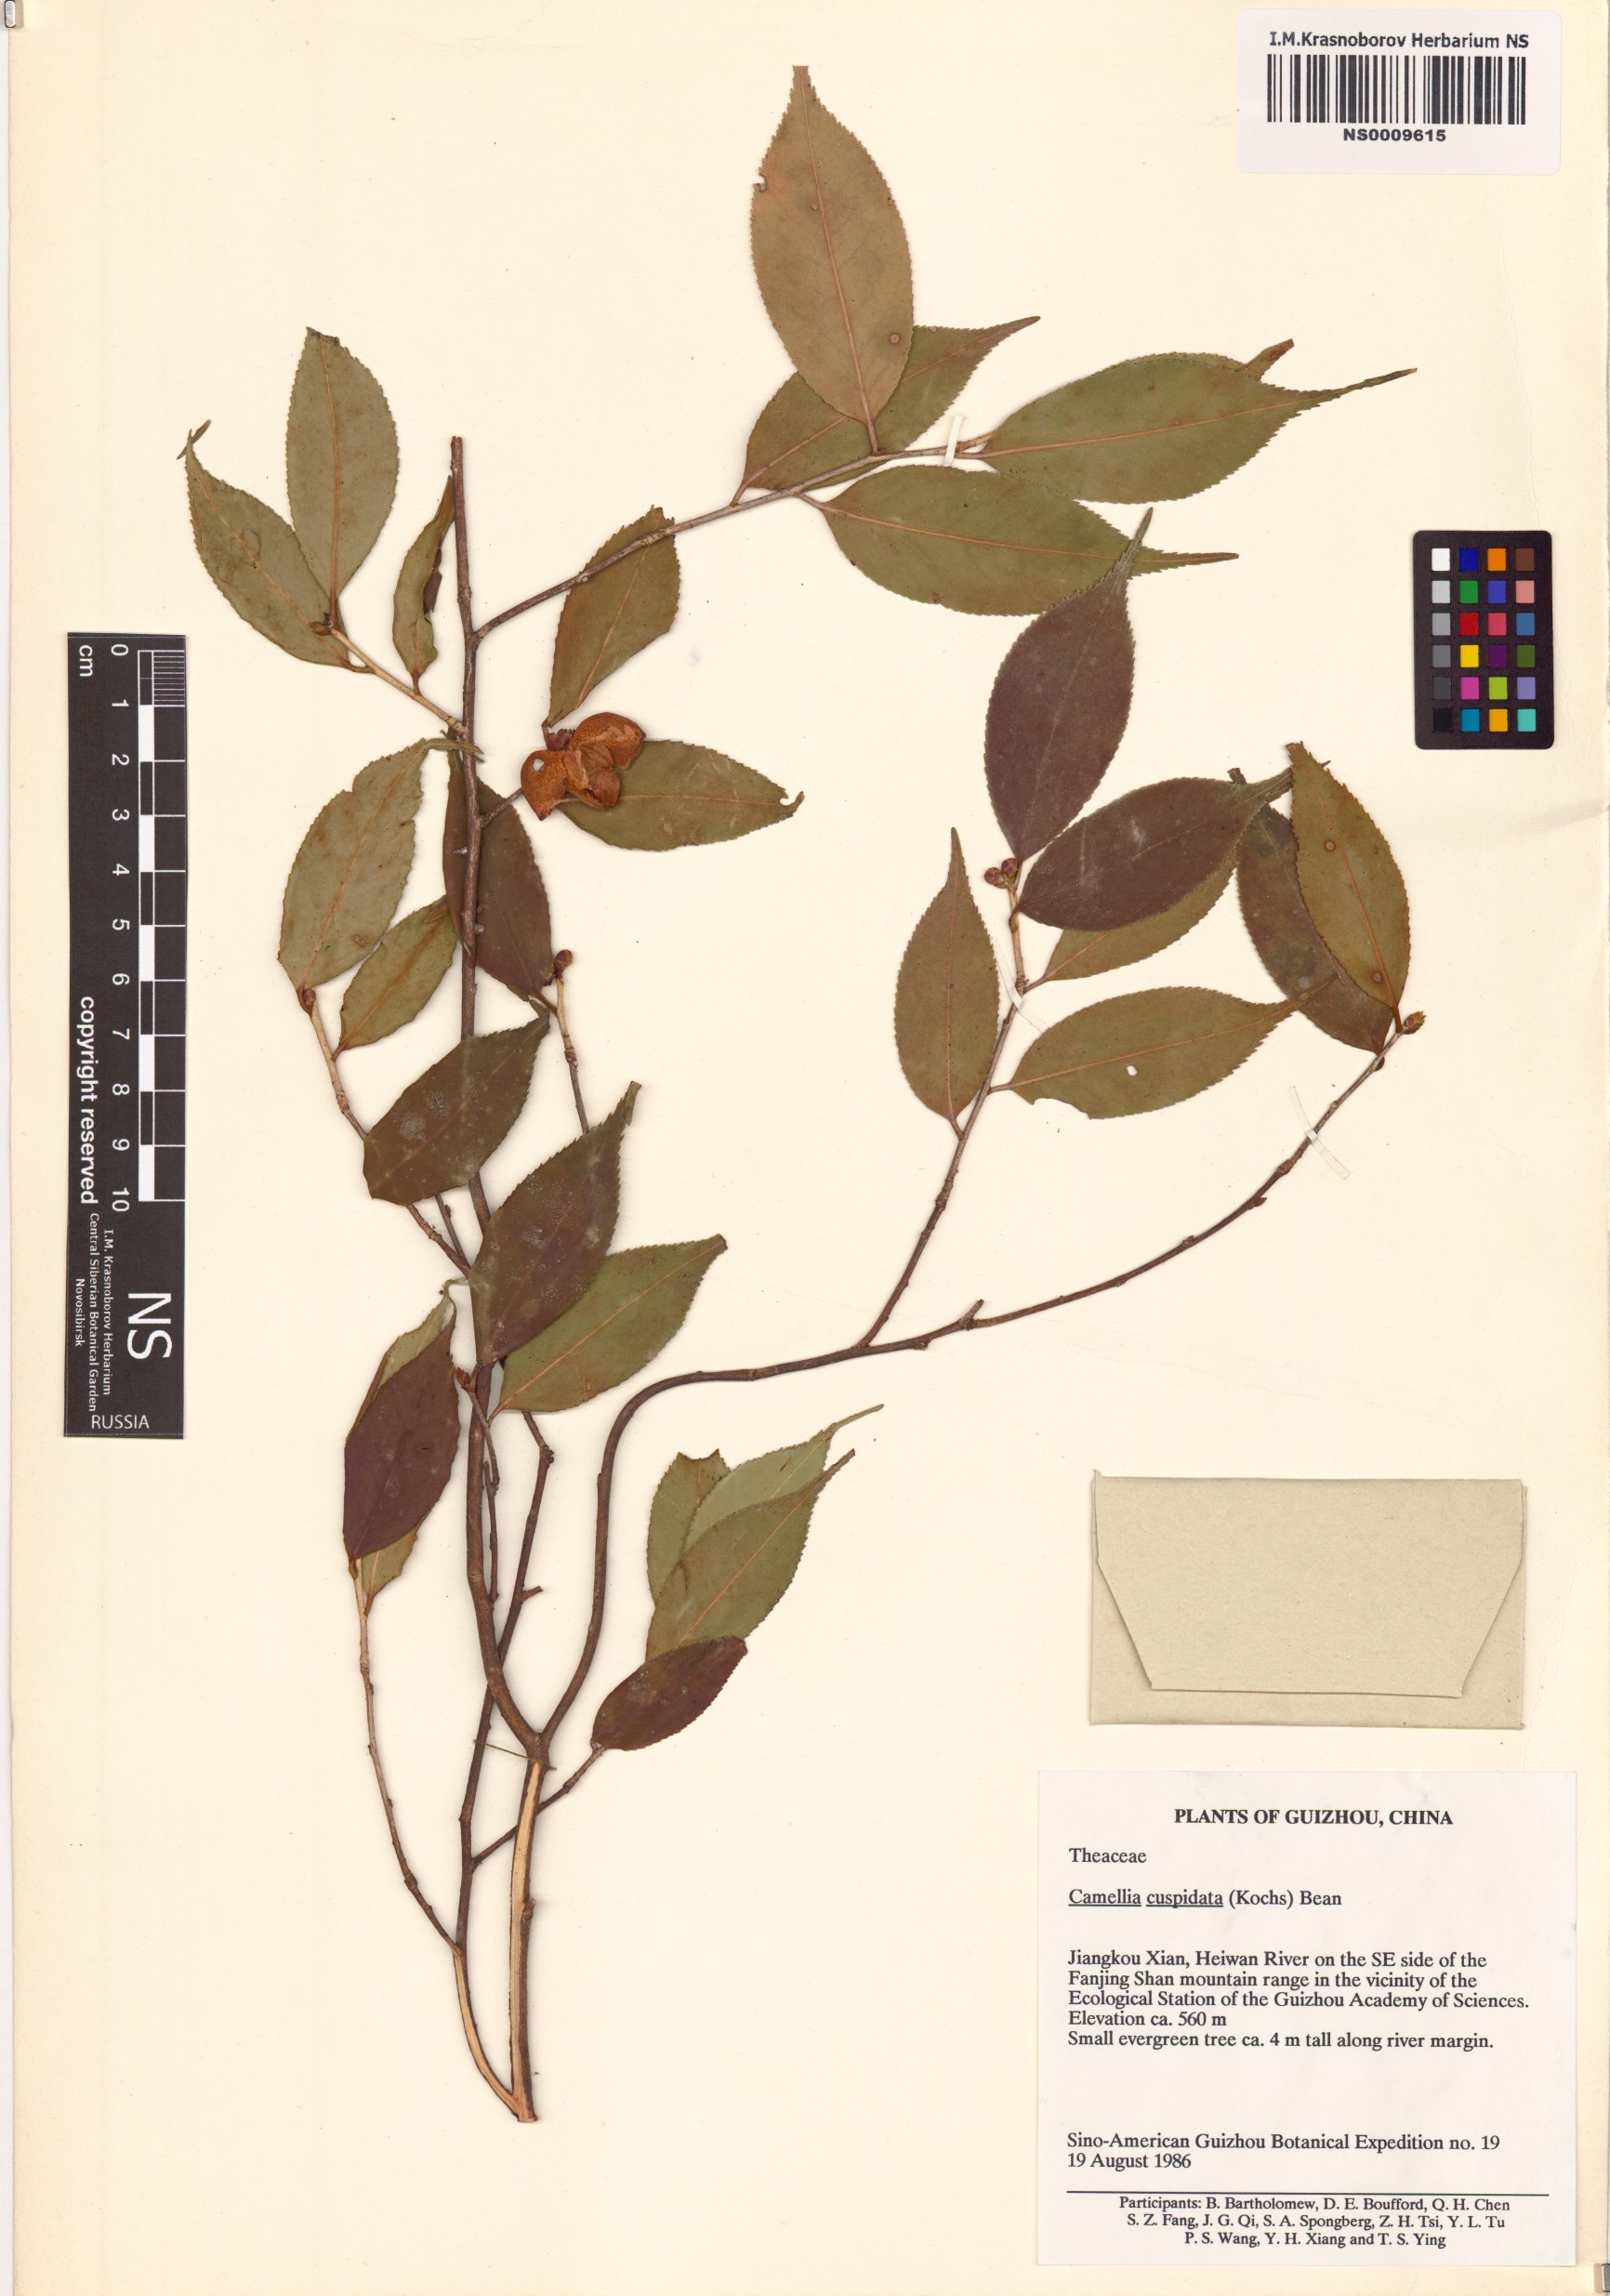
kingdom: Plantae
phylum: Tracheophyta
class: Magnoliopsida
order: Ericales
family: Theaceae
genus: Camellia
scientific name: Camellia cuspidata
